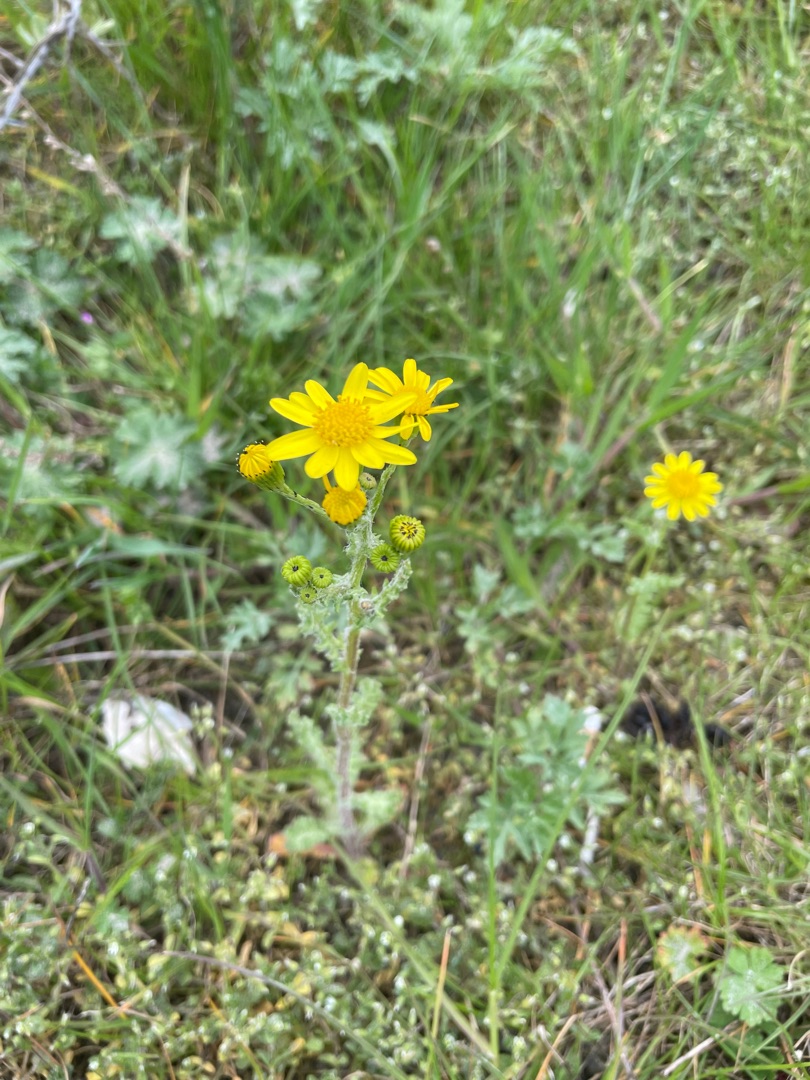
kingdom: Plantae
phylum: Tracheophyta
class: Magnoliopsida
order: Asterales
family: Asteraceae
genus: Senecio
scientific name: Senecio leucanthemifolius
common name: Vår-brandbæger
